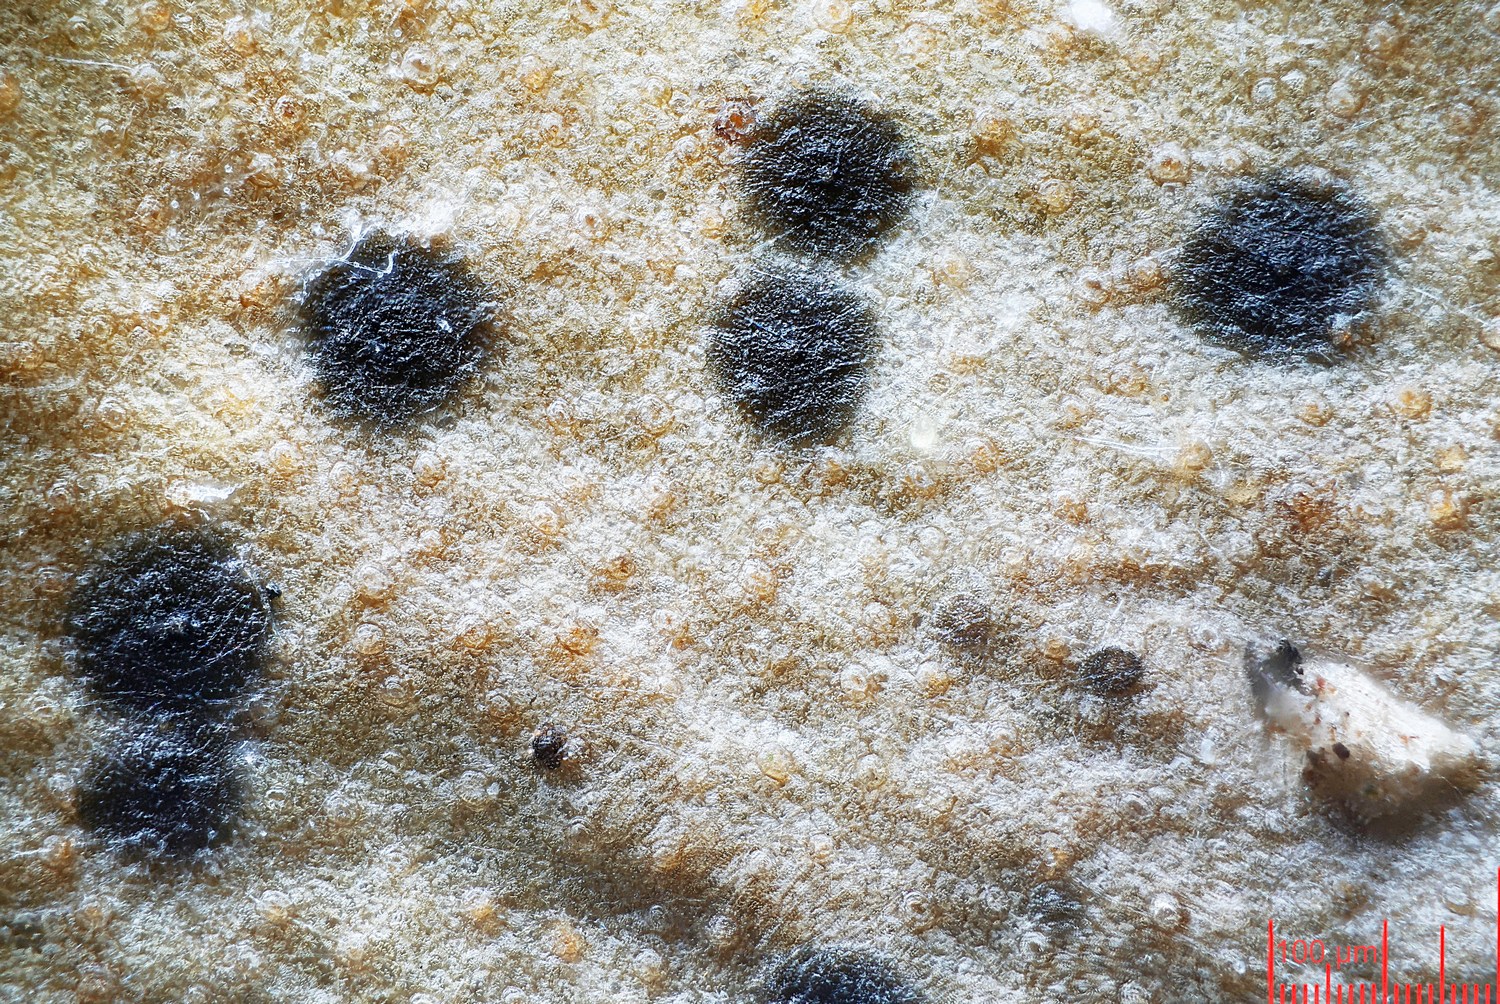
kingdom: Fungi
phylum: Ascomycota
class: Dothideomycetes
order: Microthyriales
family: Microthyriaceae
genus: Microthyrium
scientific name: Microthyrium macrosporum
